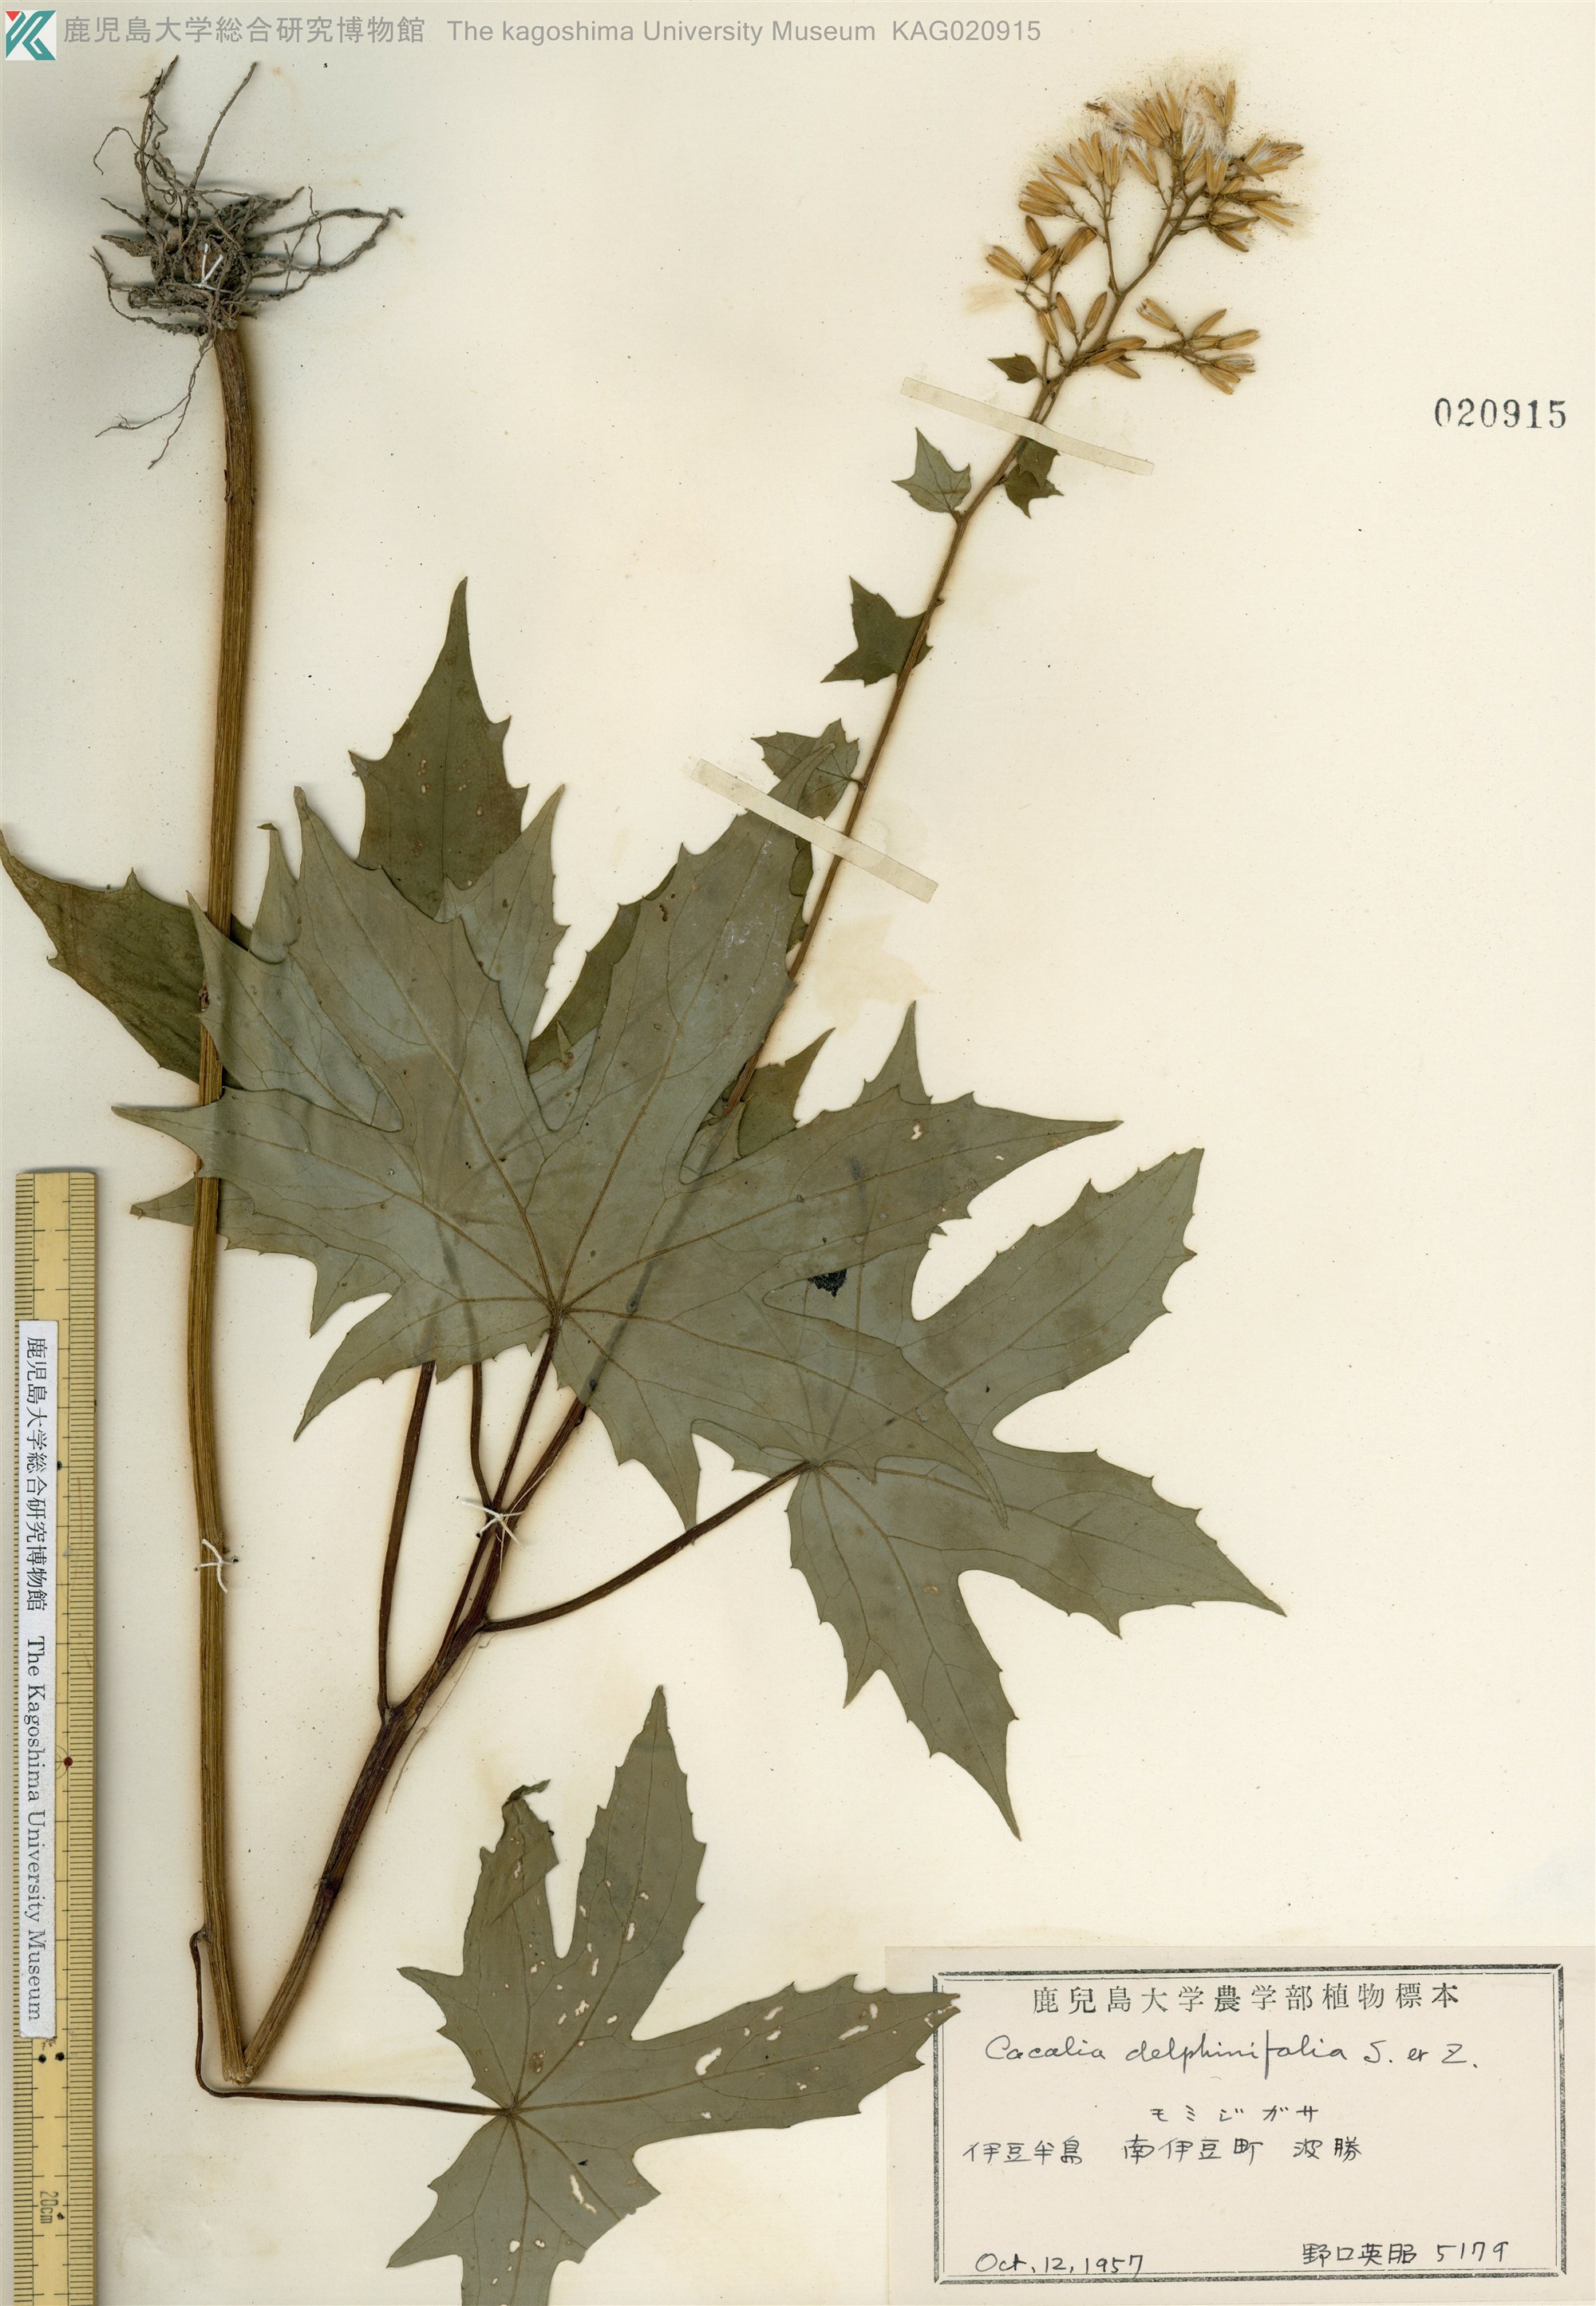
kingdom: Plantae
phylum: Tracheophyta
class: Magnoliopsida
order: Asterales
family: Asteraceae
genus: Japonicalia
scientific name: Japonicalia delphiniifolia
